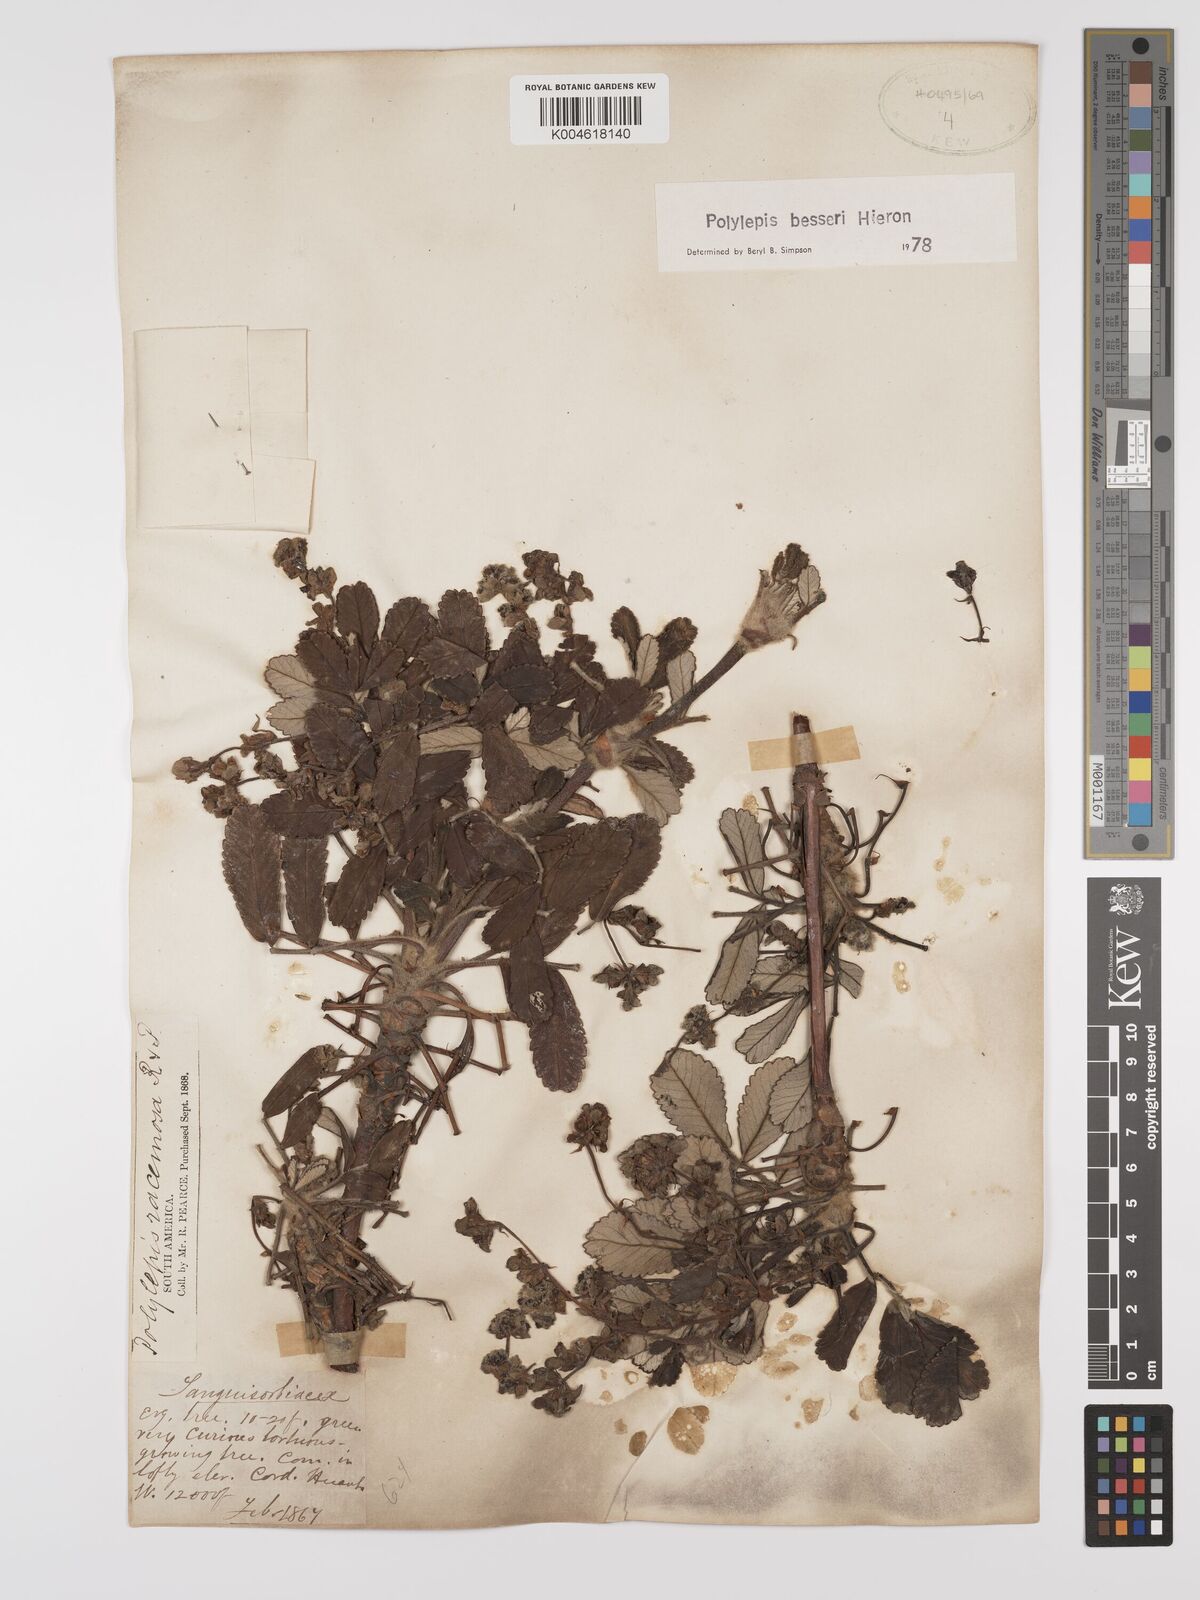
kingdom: Plantae
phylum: Tracheophyta
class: Magnoliopsida
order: Rosales
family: Rosaceae
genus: Polylepis
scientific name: Polylepis
